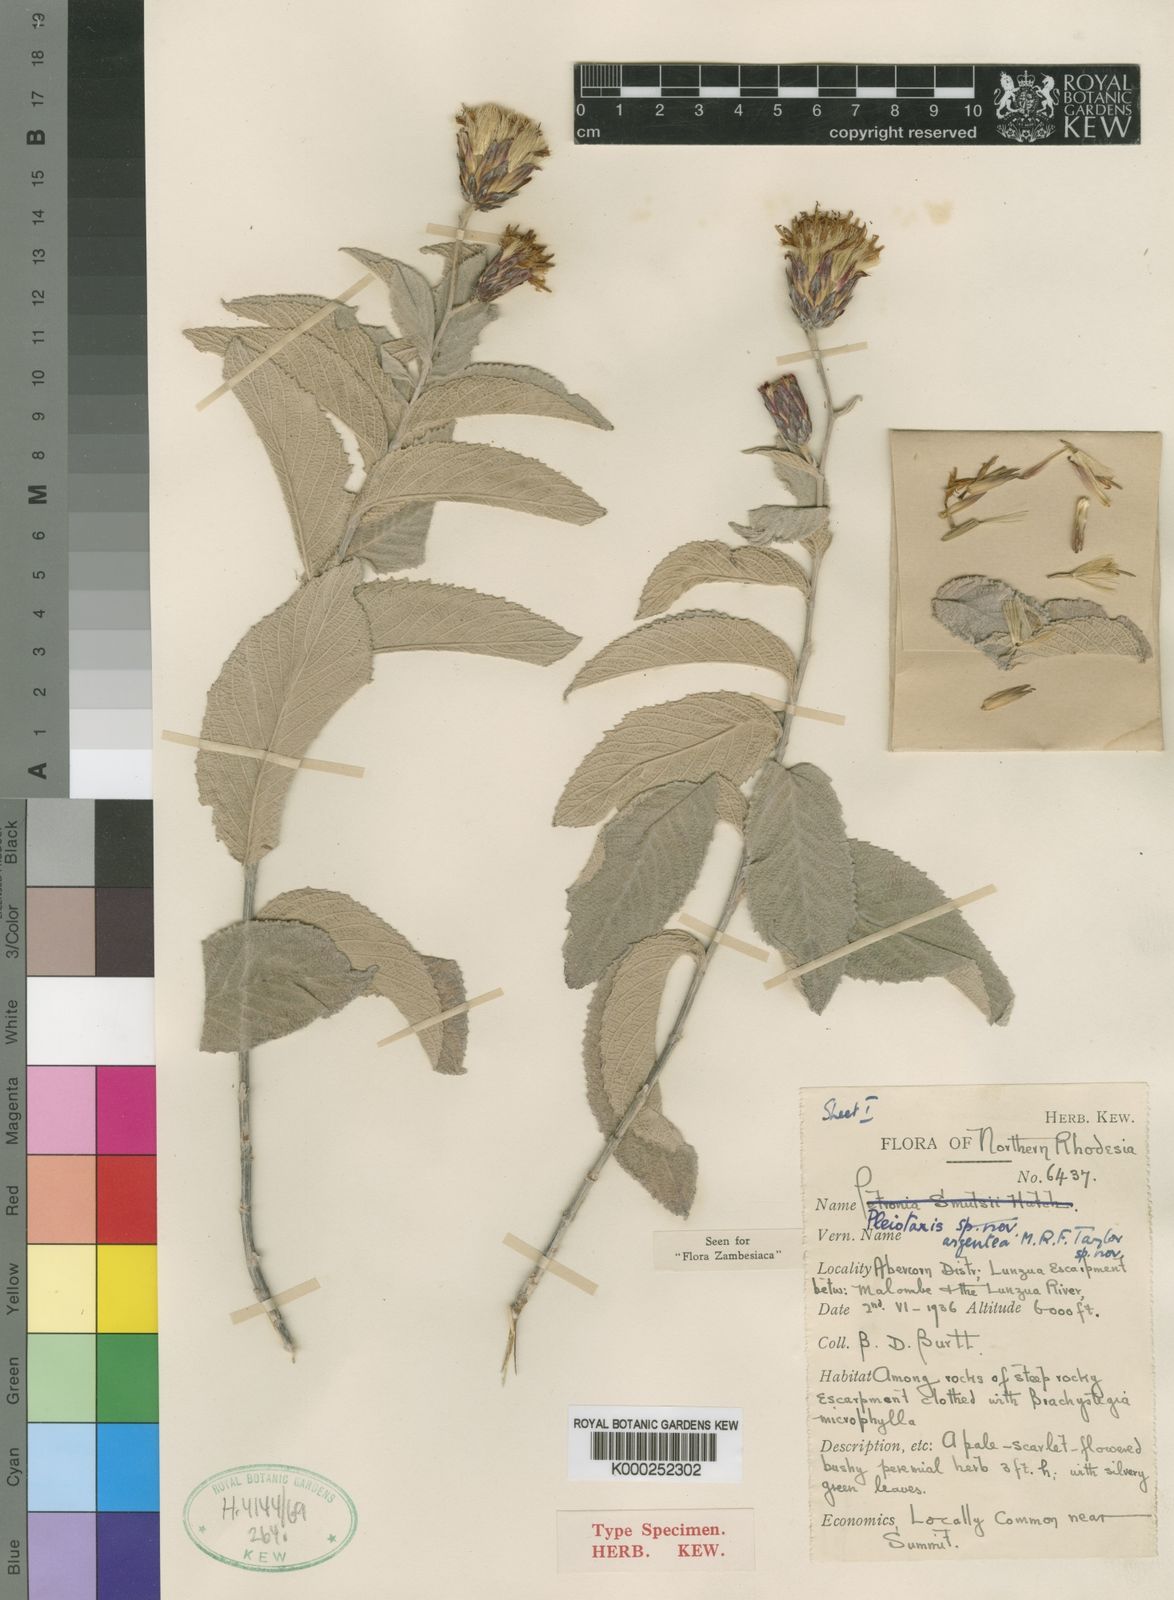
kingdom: Plantae
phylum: Tracheophyta
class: Magnoliopsida
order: Asterales
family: Asteraceae
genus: Pleiotaxis
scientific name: Pleiotaxis huillensis
